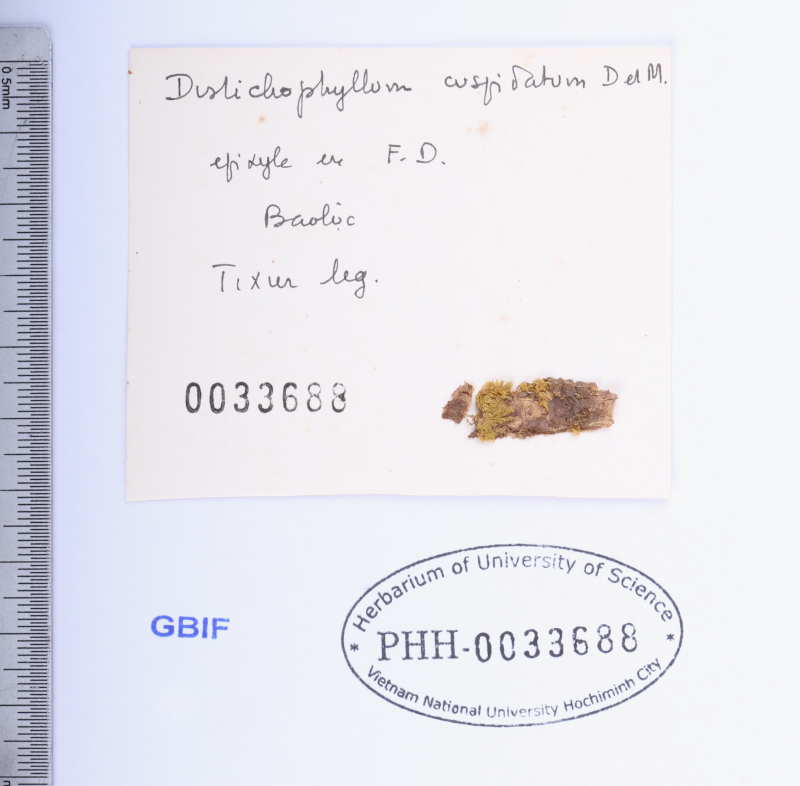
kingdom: Plantae
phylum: Bryophyta
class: Bryopsida
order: Hookeriales
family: Daltoniaceae
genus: Distichophyllum
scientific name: Distichophyllum cuspidatum
